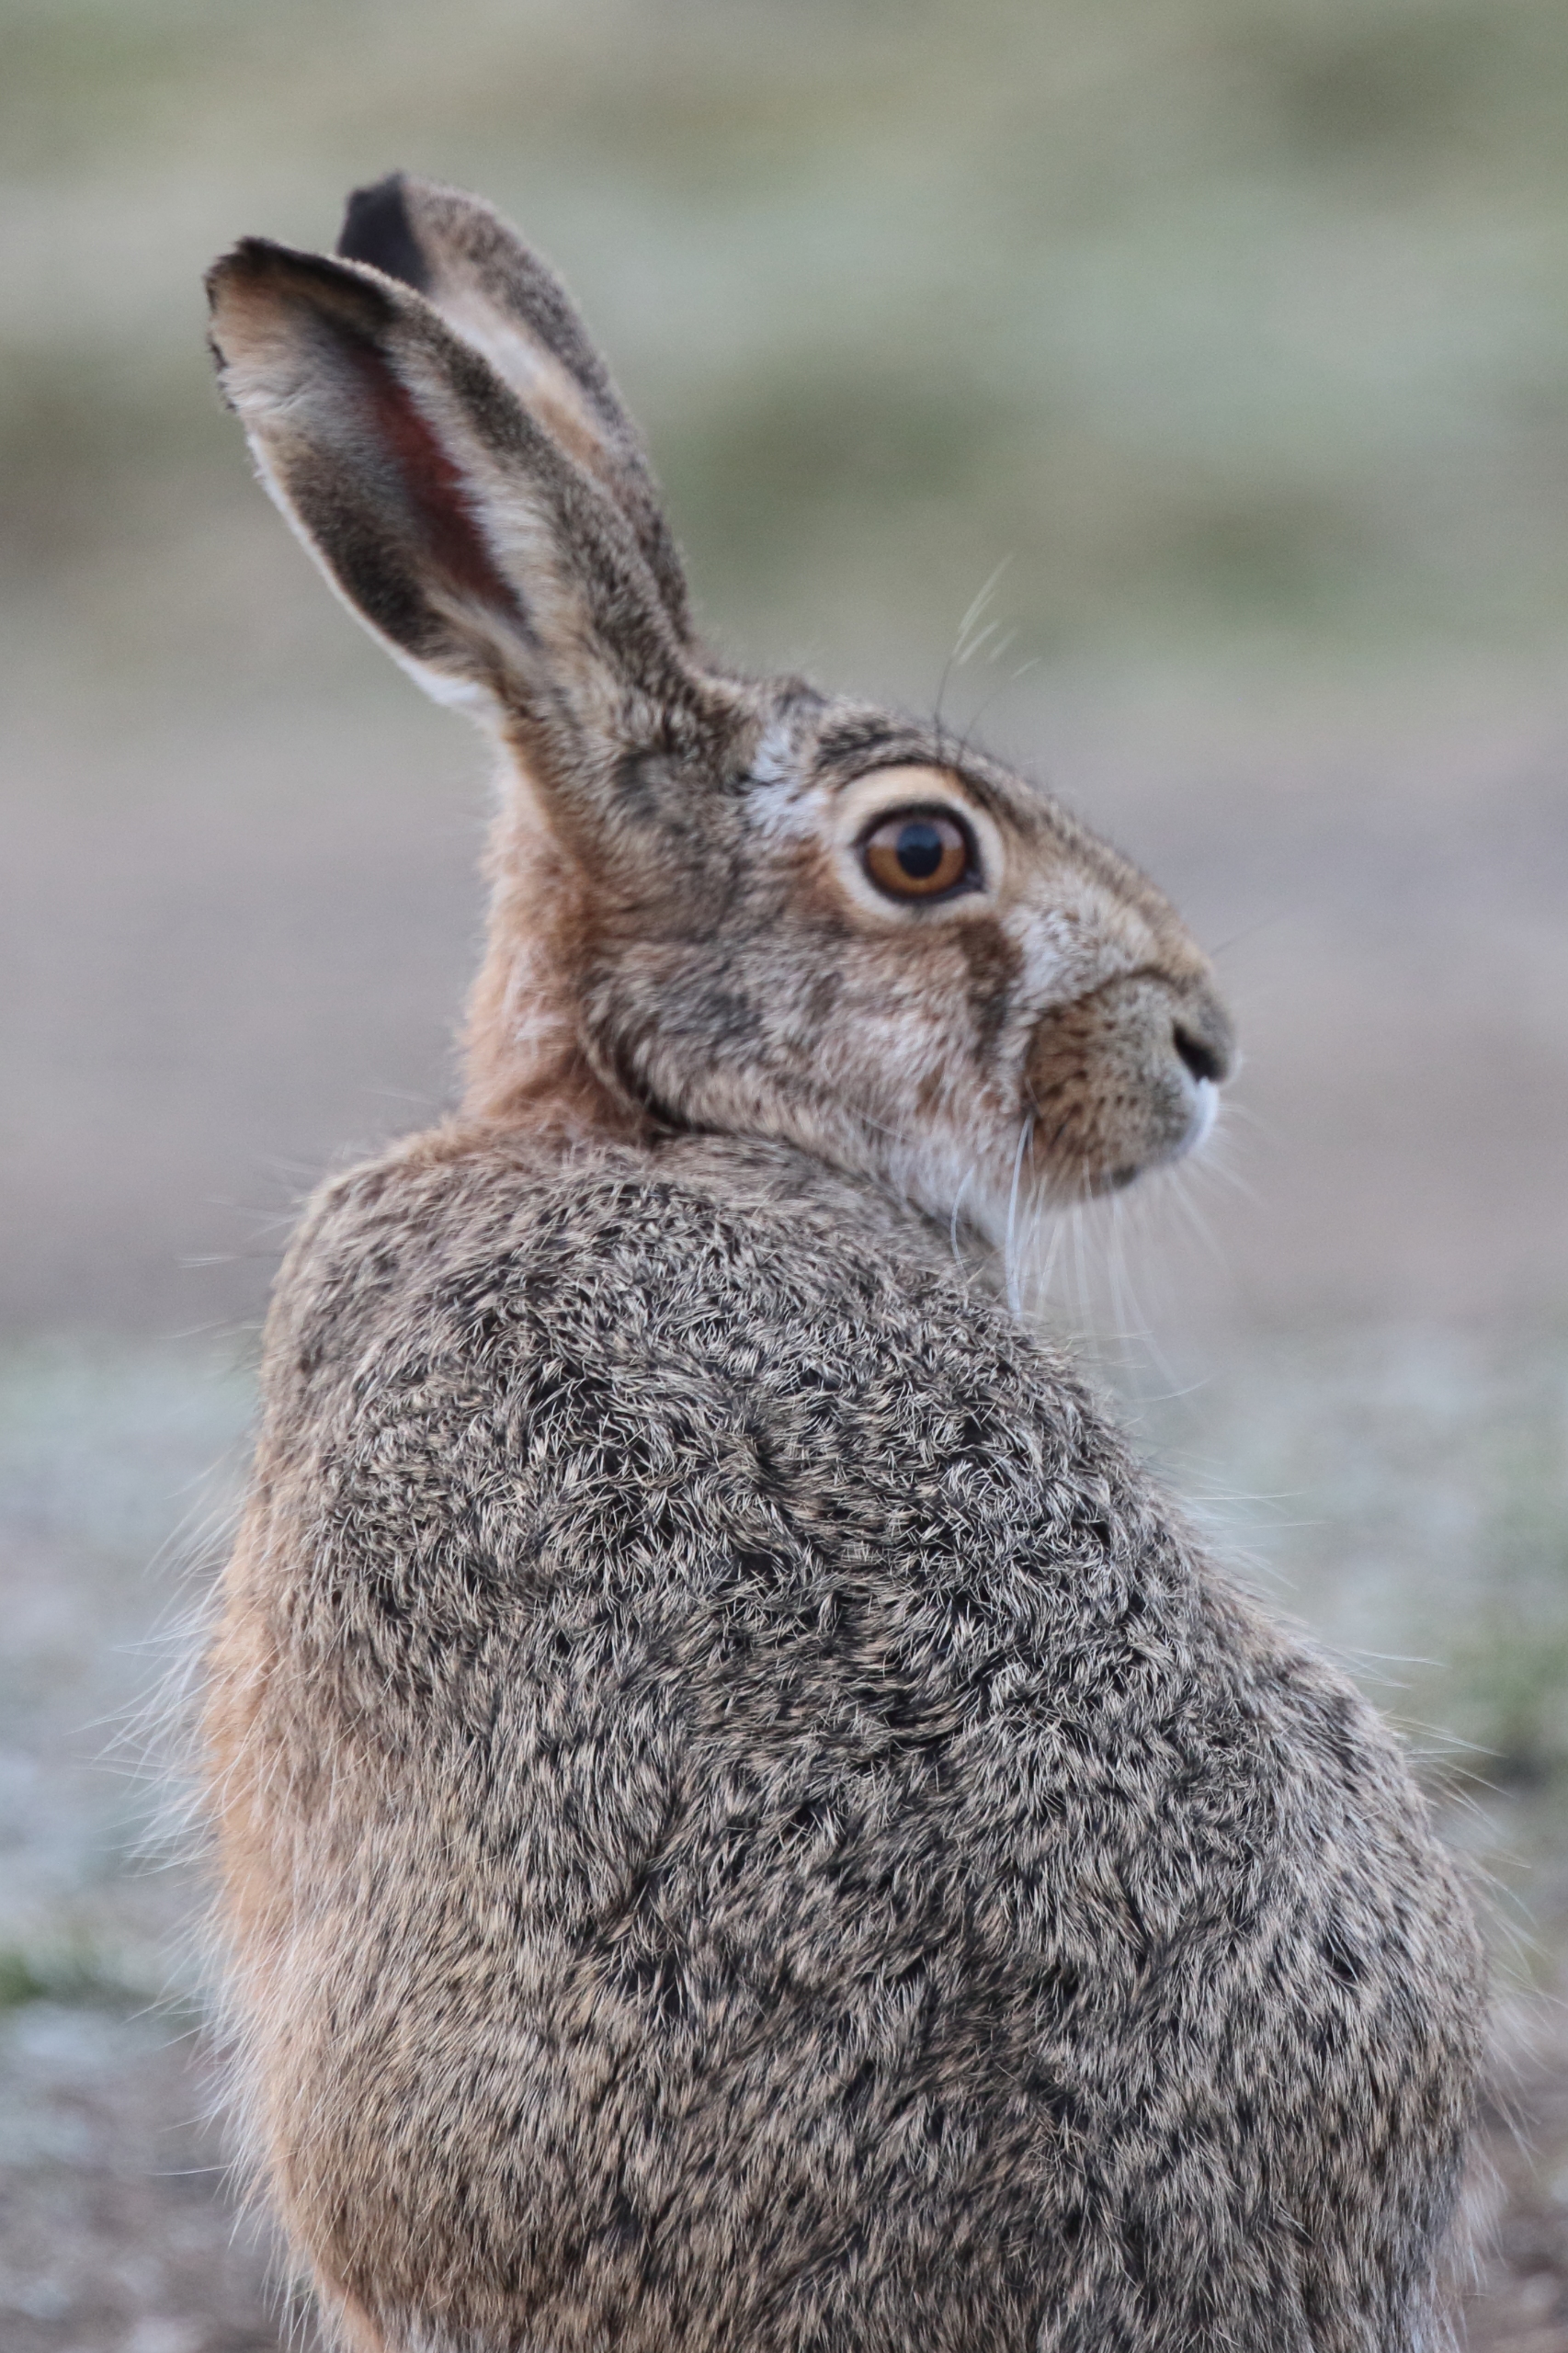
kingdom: Animalia
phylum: Chordata
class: Mammalia
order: Lagomorpha
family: Leporidae
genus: Lepus
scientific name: Lepus europaeus
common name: Hare
